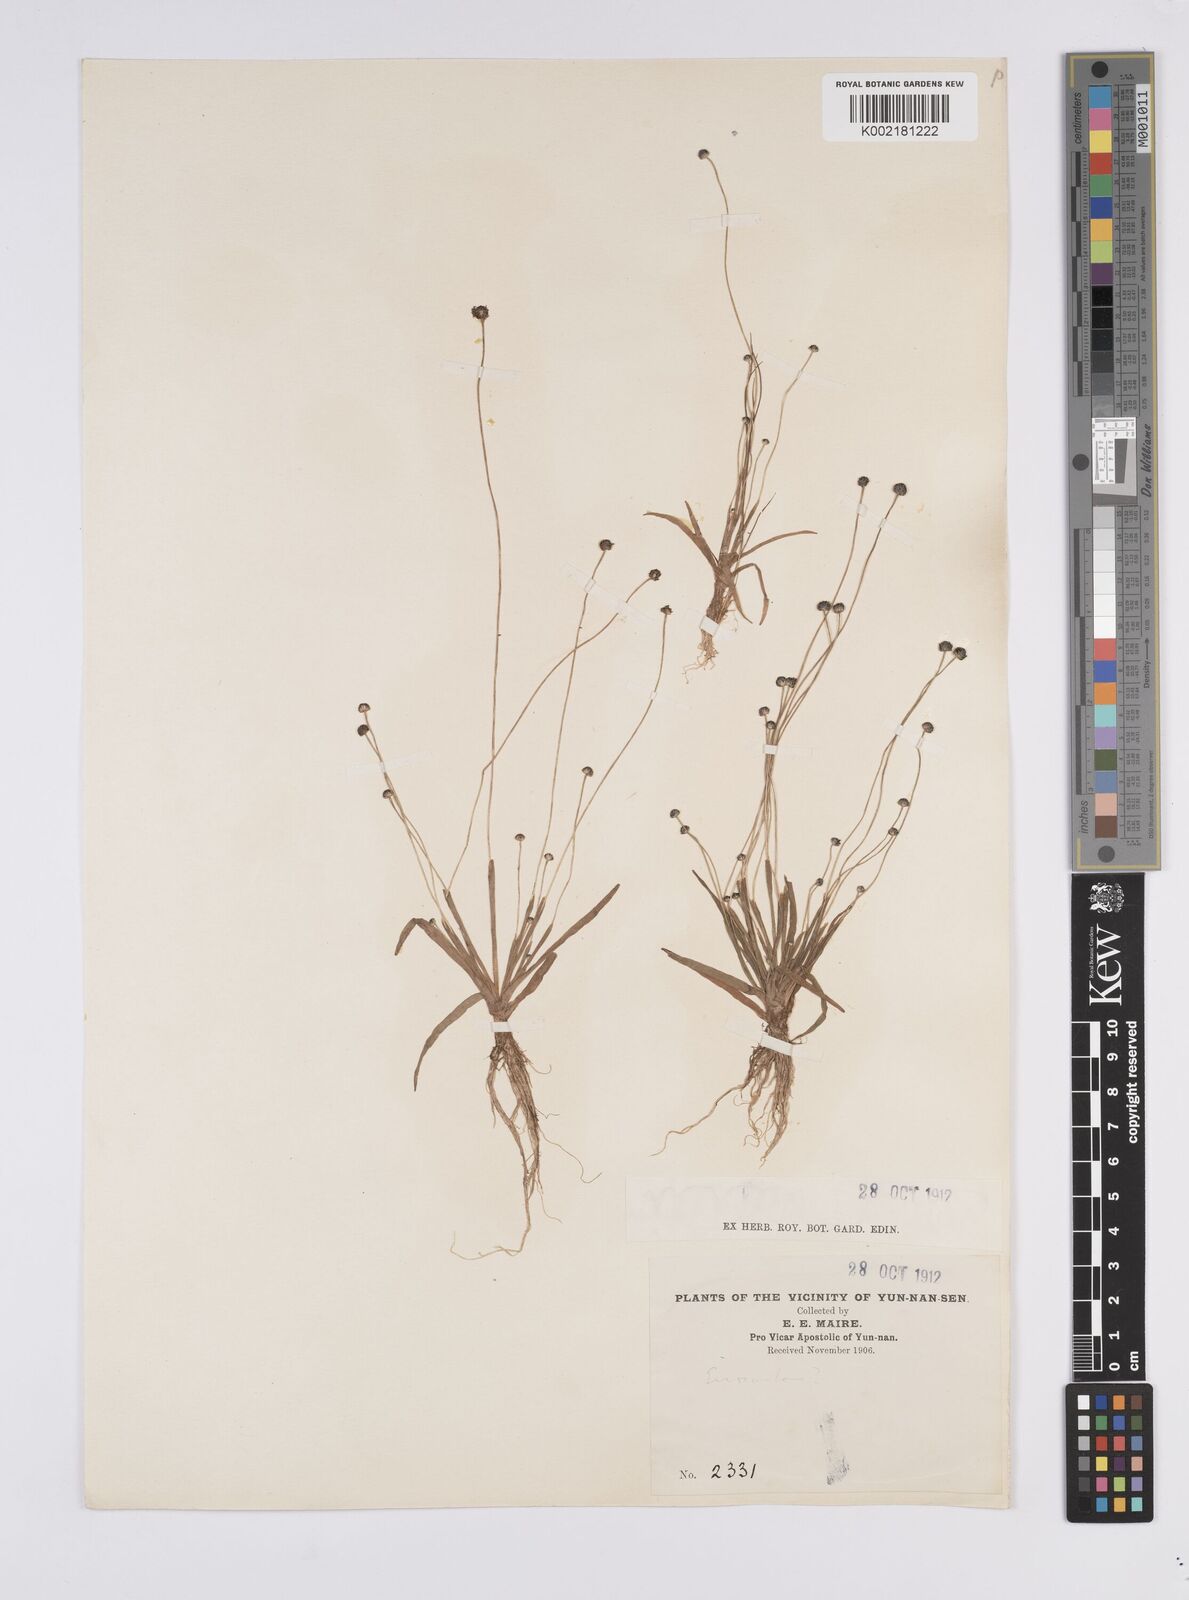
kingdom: Plantae
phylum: Tracheophyta
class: Liliopsida
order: Poales
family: Eriocaulaceae
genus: Eriocaulon
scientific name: Eriocaulon
